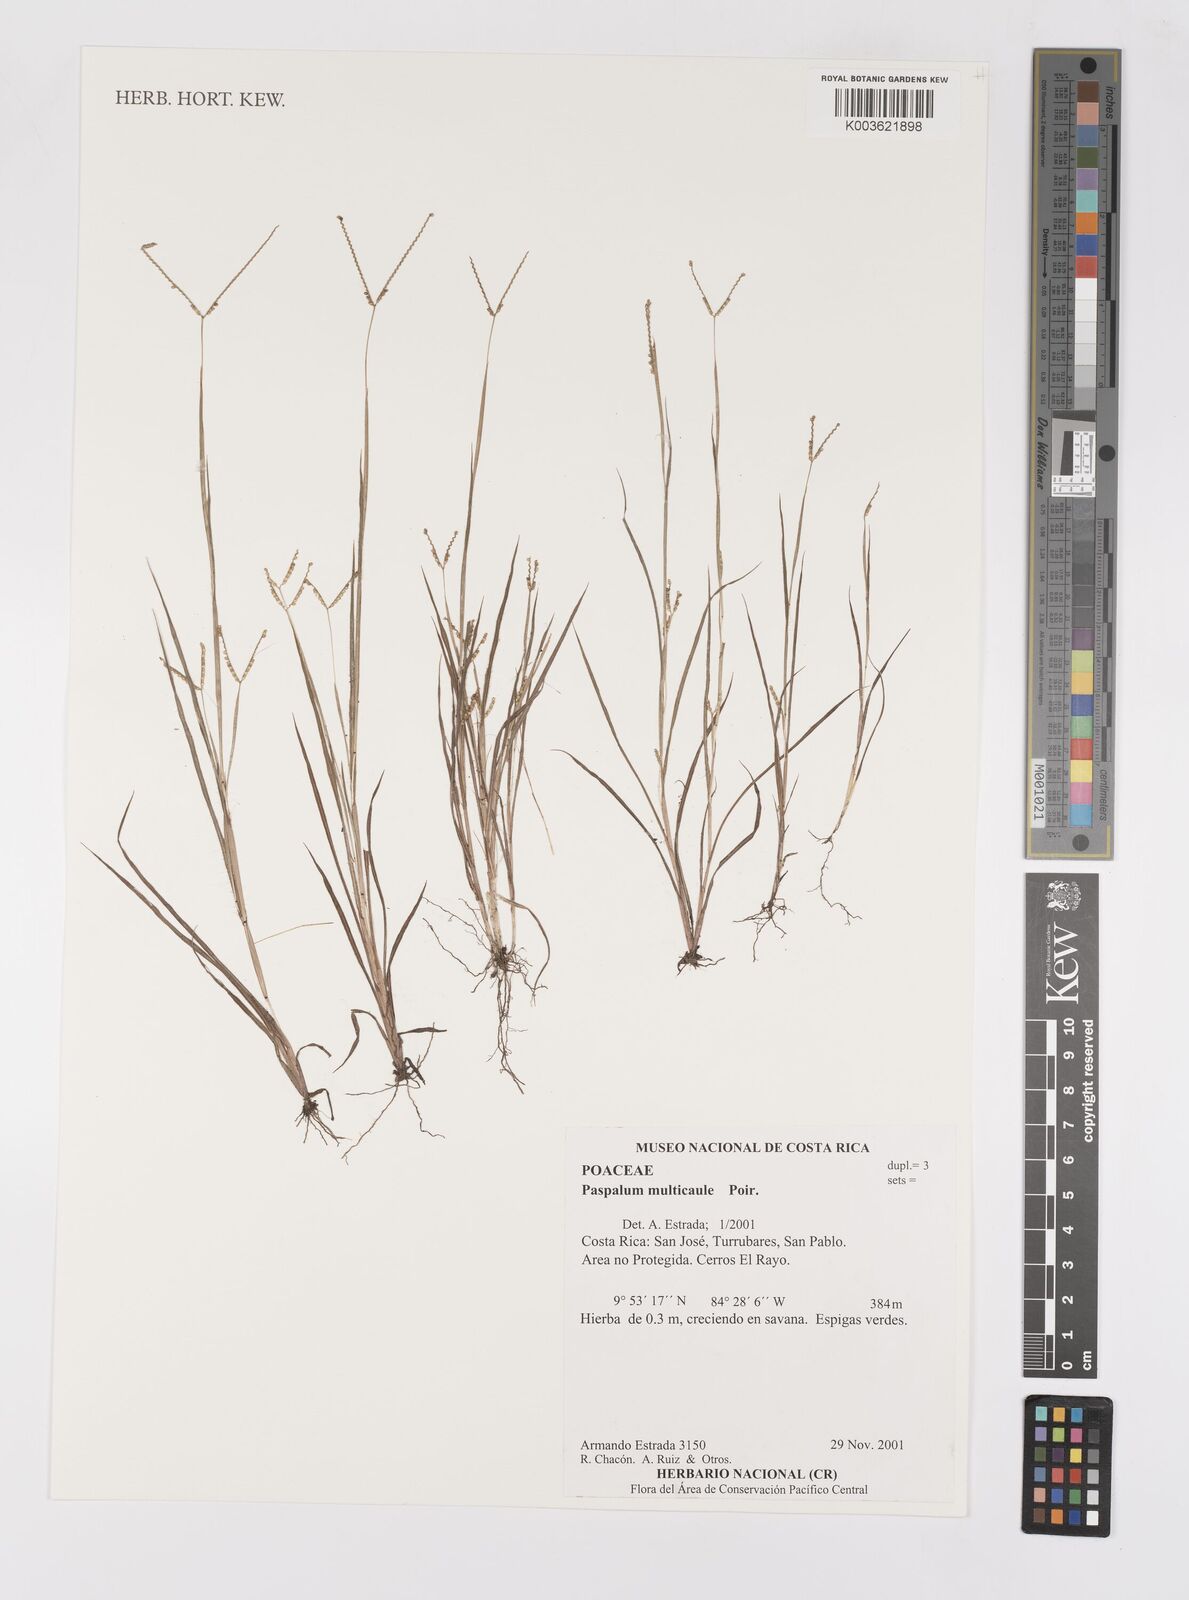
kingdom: Plantae
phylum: Tracheophyta
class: Liliopsida
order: Poales
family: Poaceae
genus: Paspalum
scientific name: Paspalum multicaule
